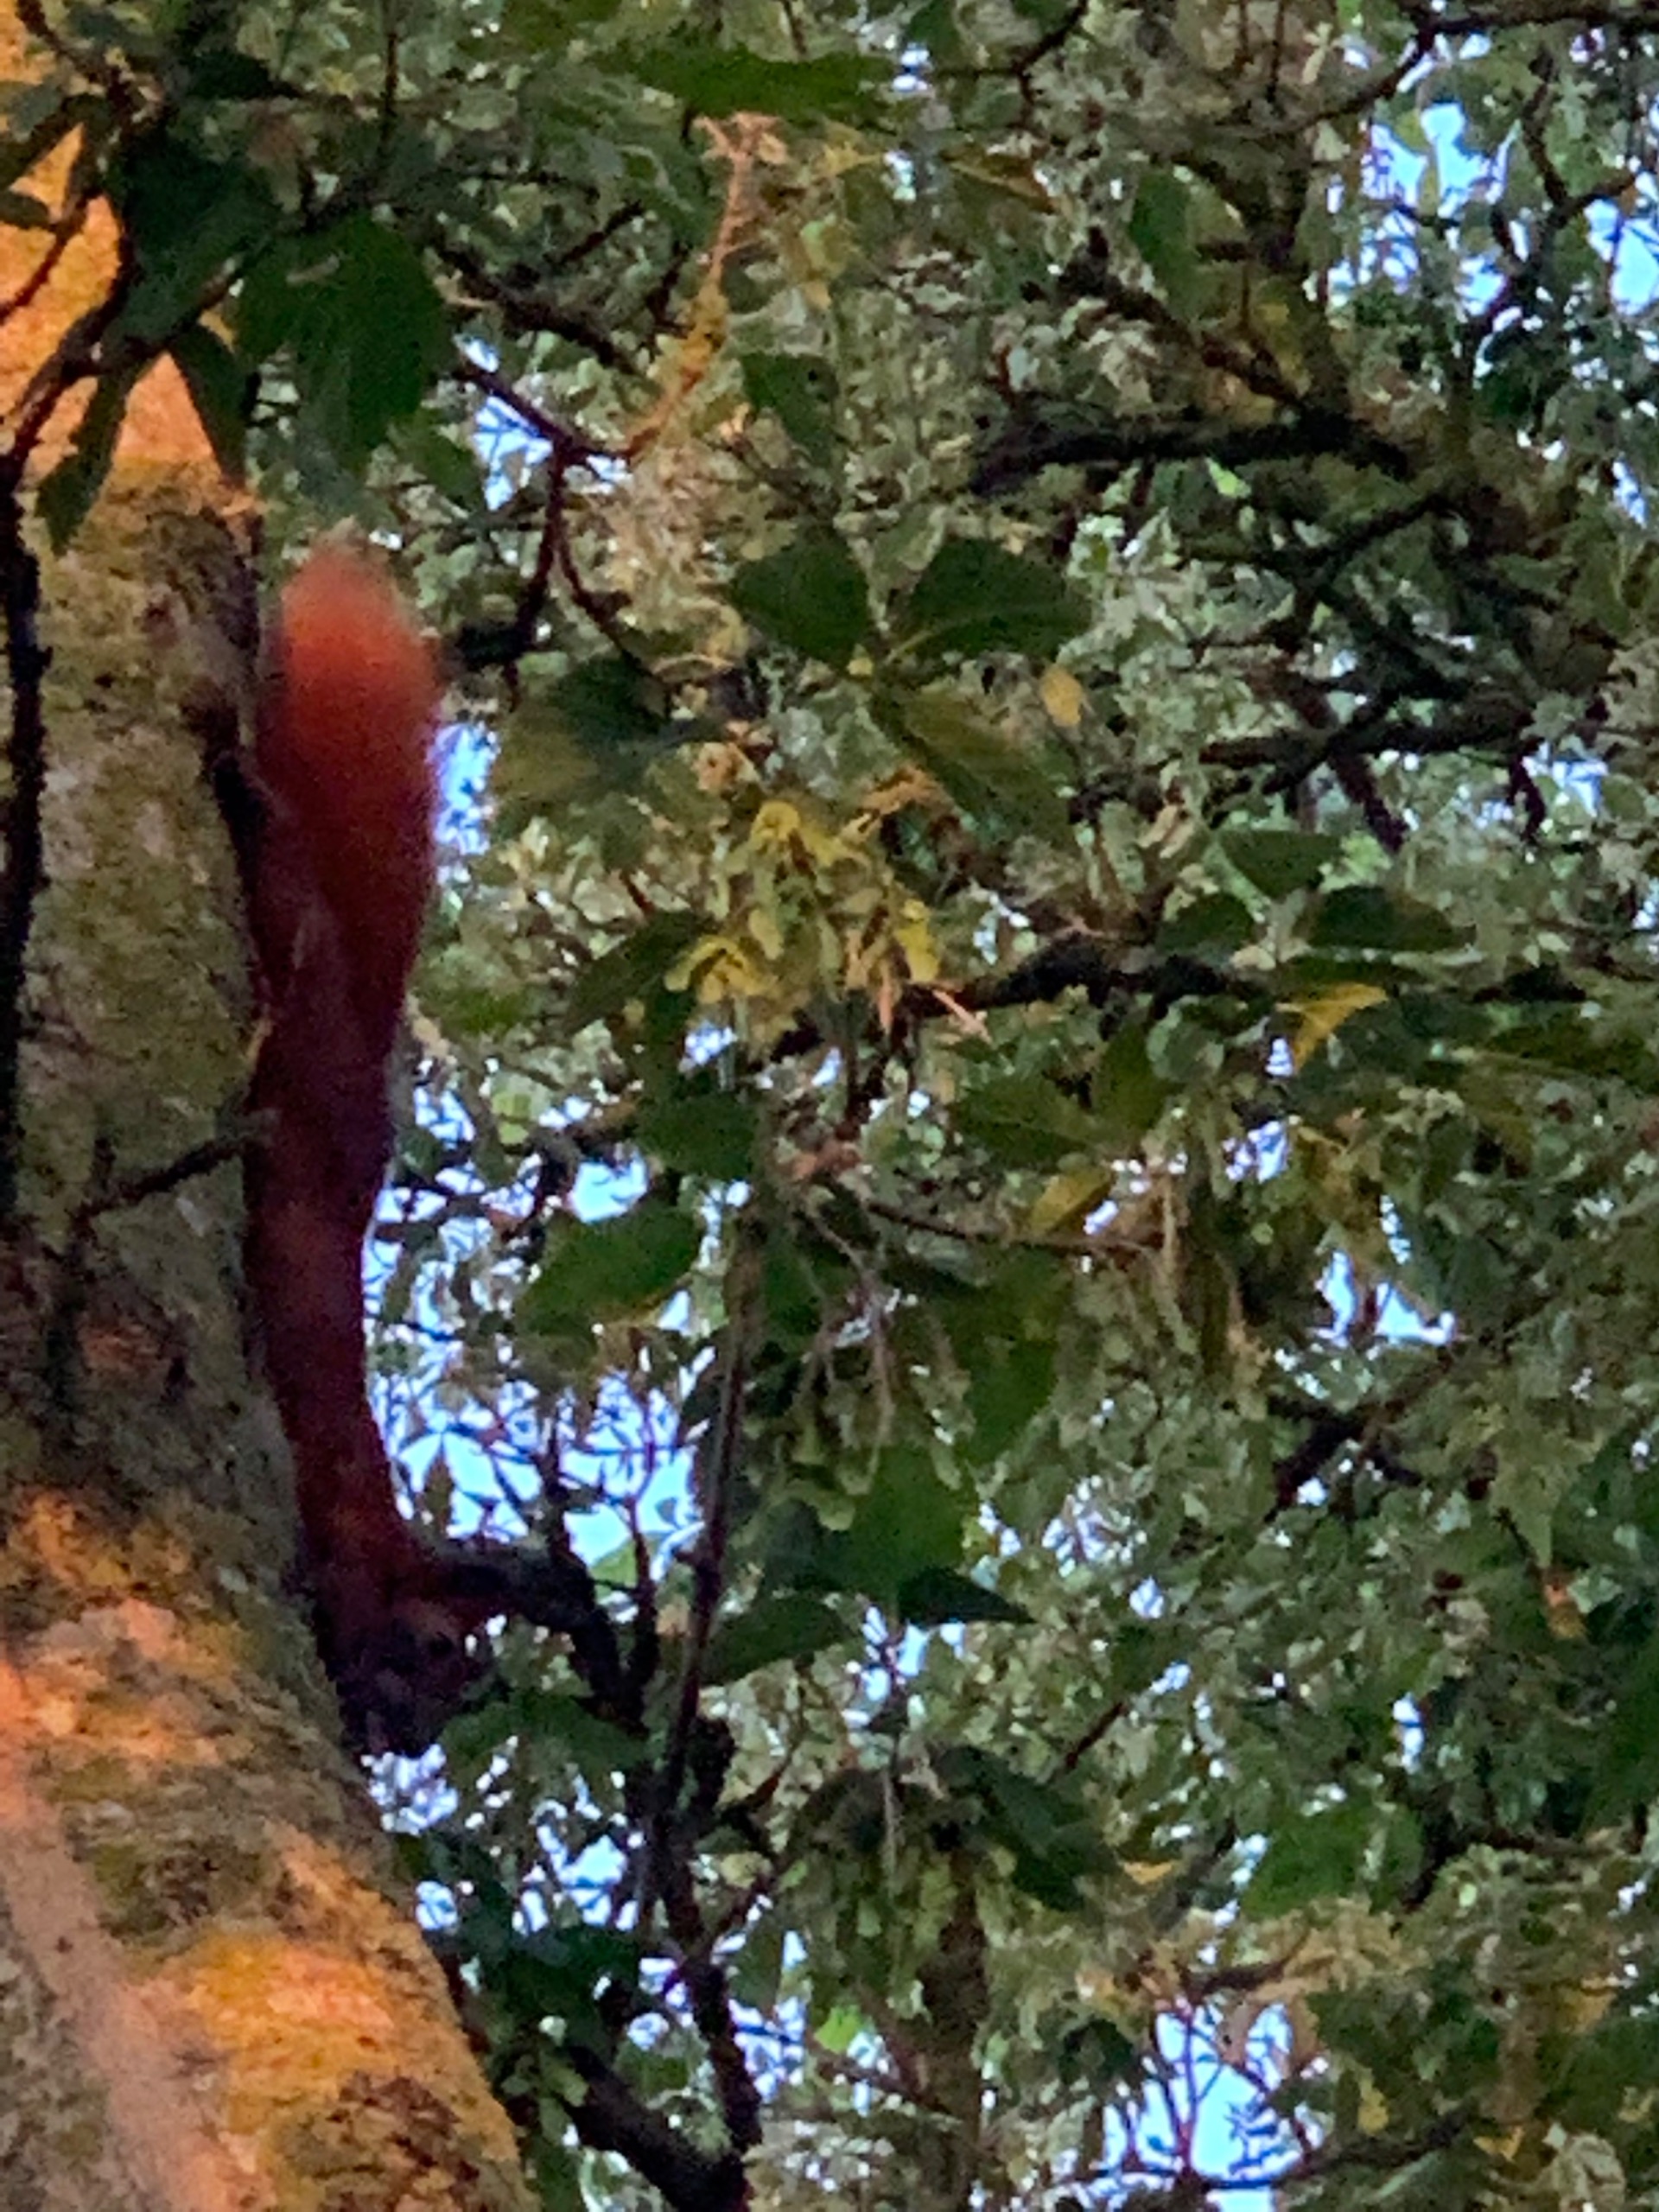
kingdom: Animalia
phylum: Chordata
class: Mammalia
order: Rodentia
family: Sciuridae
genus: Sciurus
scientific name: Sciurus vulgaris
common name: Egern
